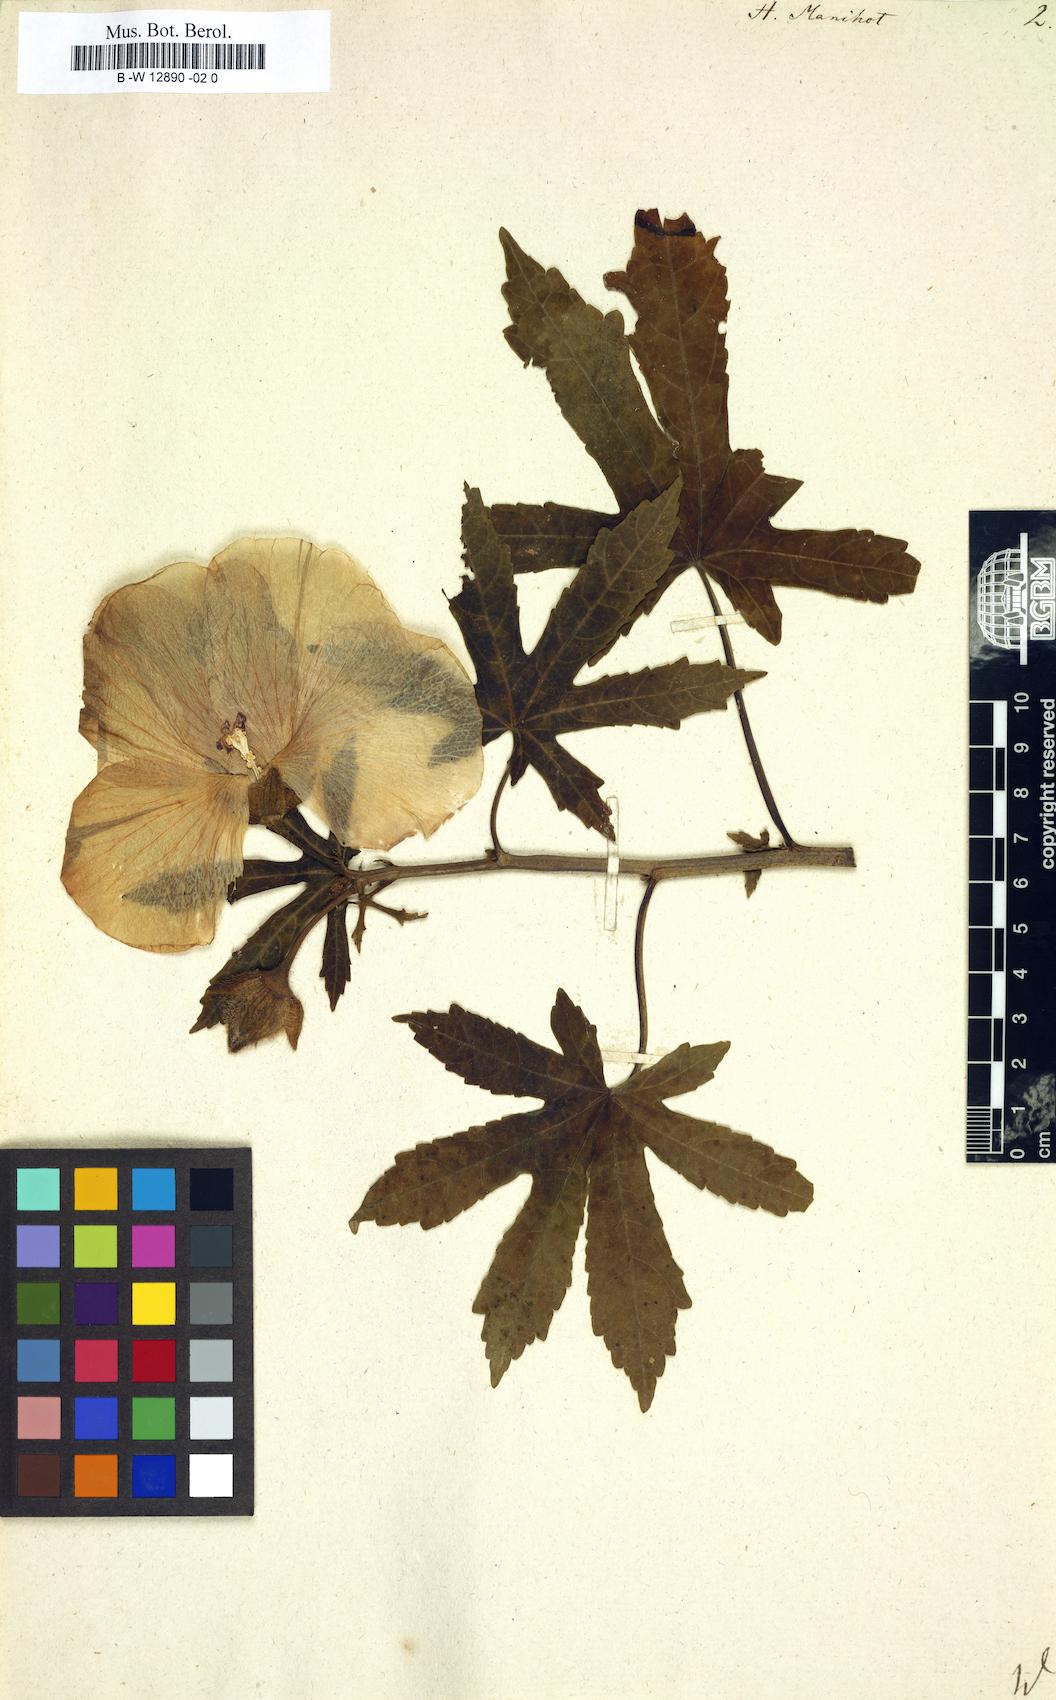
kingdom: Plantae
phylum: Tracheophyta
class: Magnoliopsida
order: Malvales
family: Malvaceae
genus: Abelmoschus
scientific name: Abelmoschus manihot
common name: Sunset muskmallow
